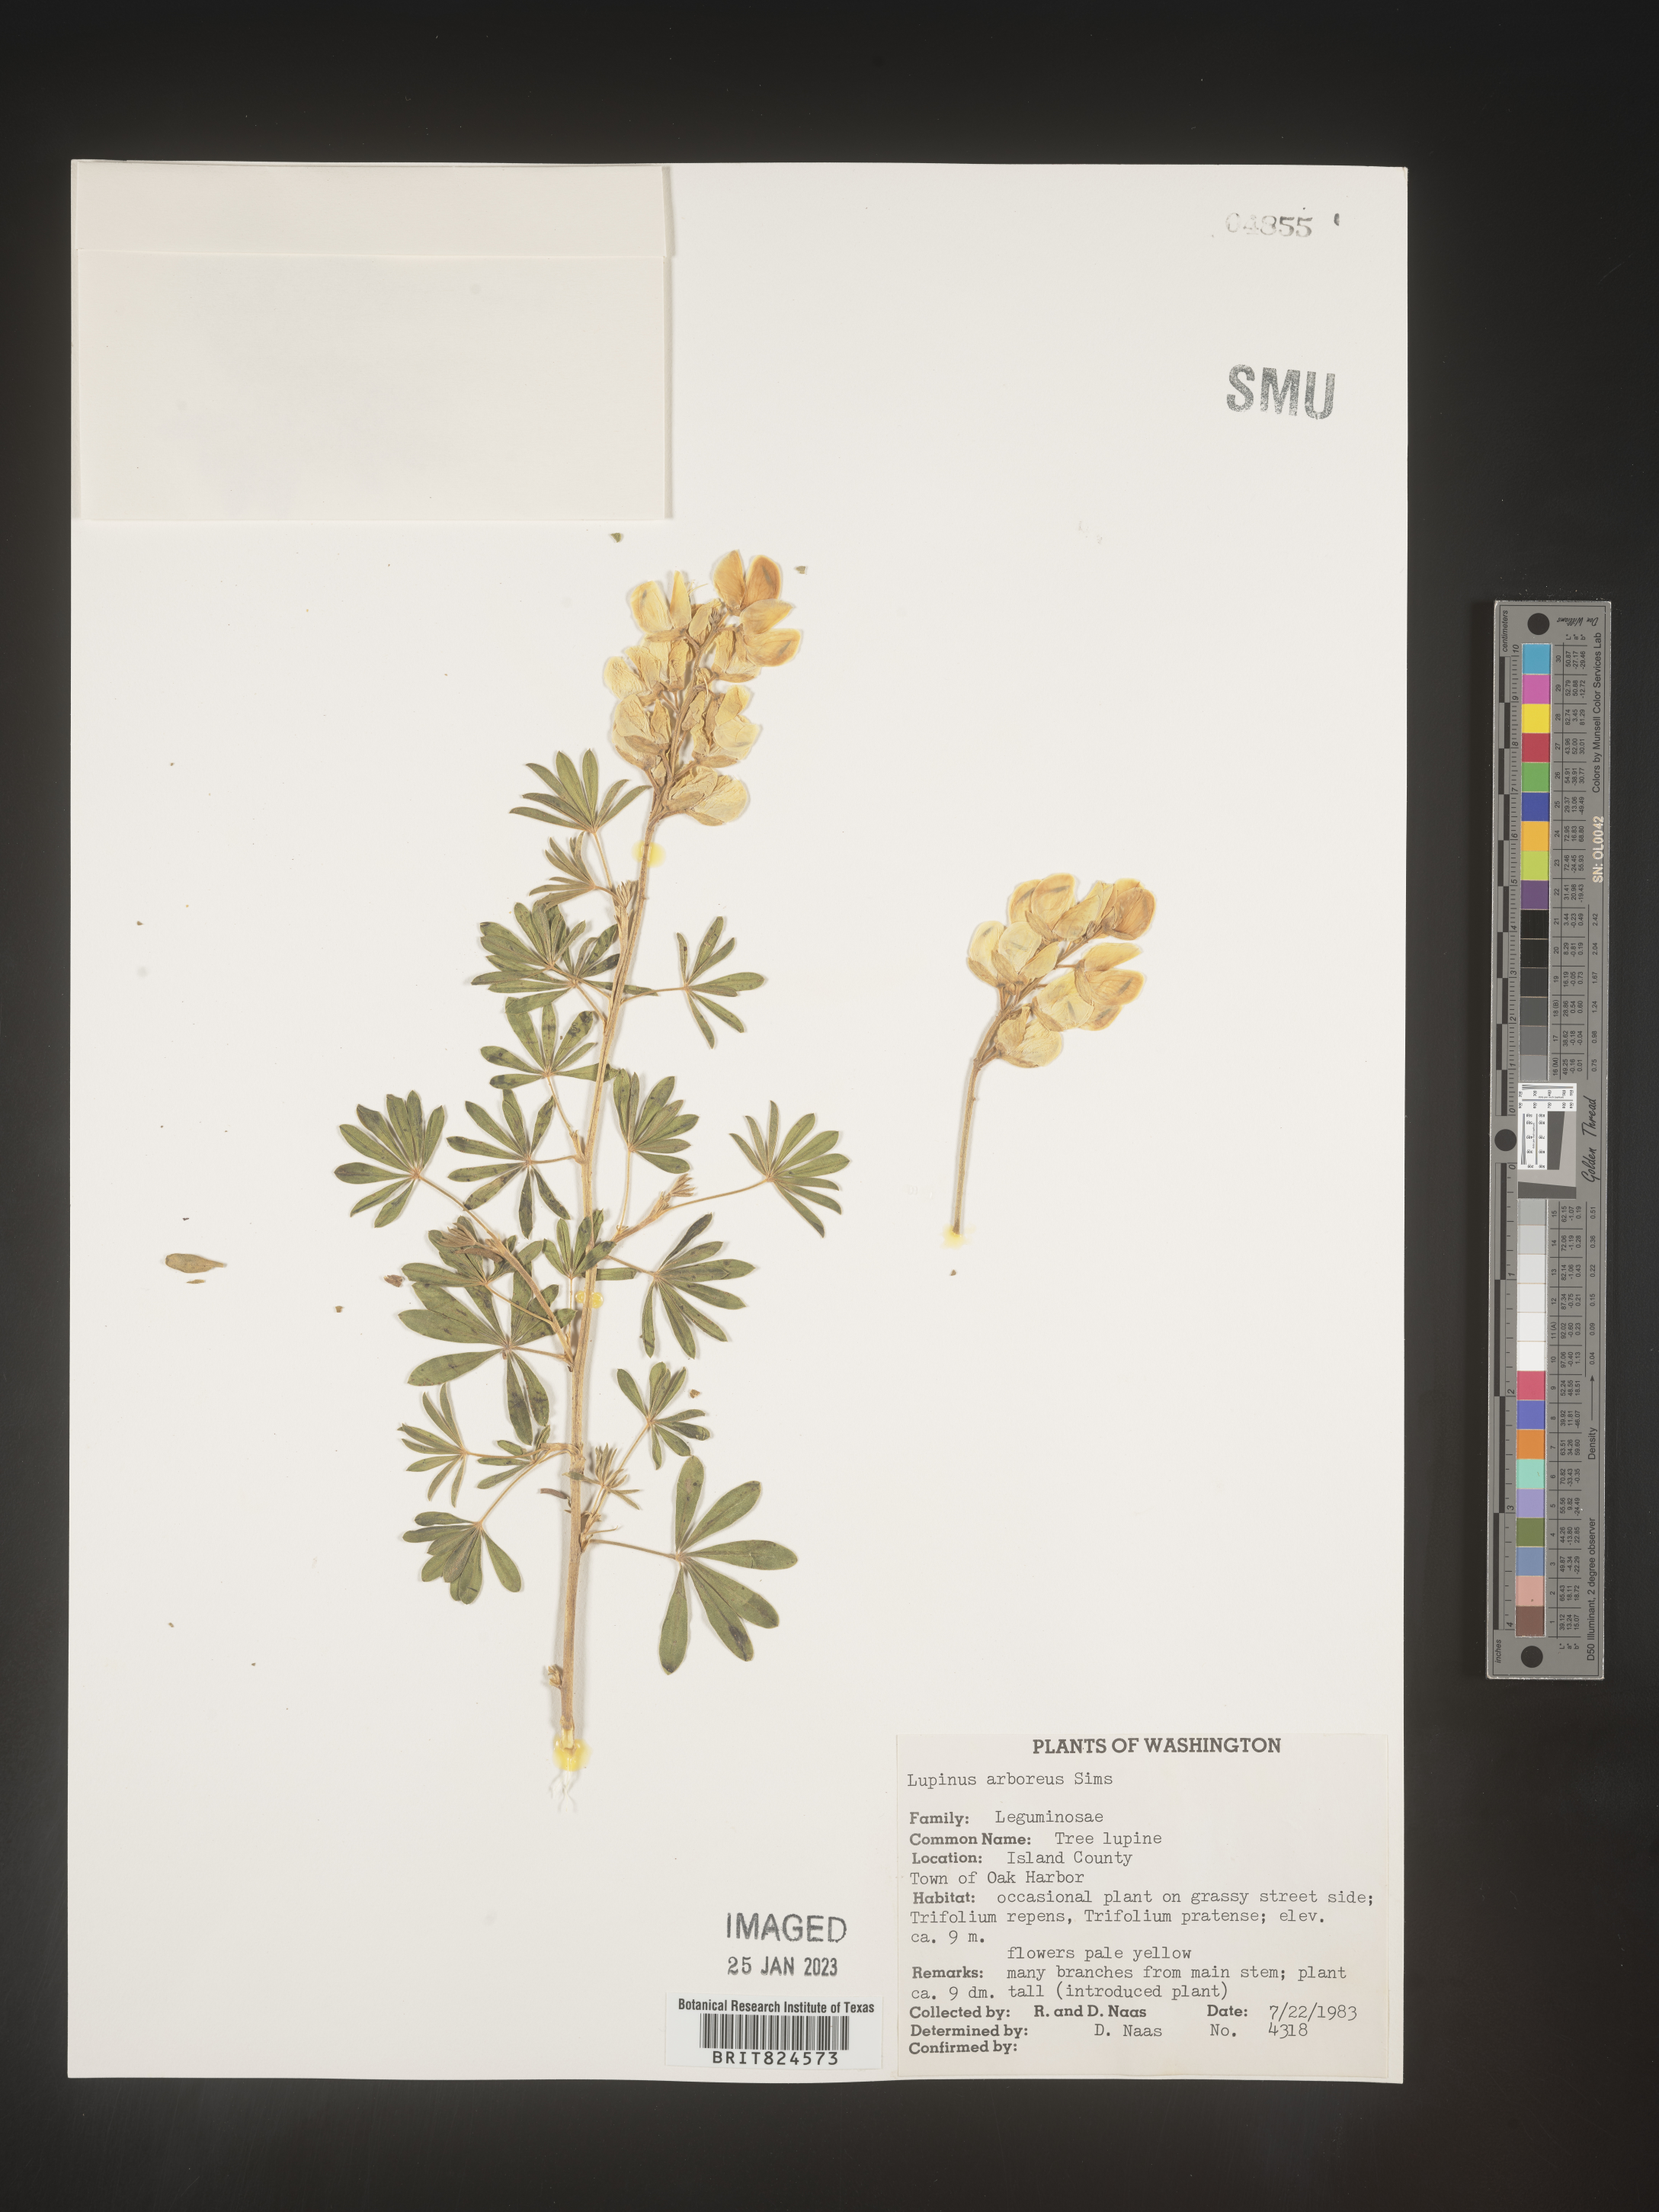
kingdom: Plantae
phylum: Tracheophyta
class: Magnoliopsida
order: Fabales
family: Fabaceae
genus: Lupinus
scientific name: Lupinus arboreus
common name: Yellow bush lupine
